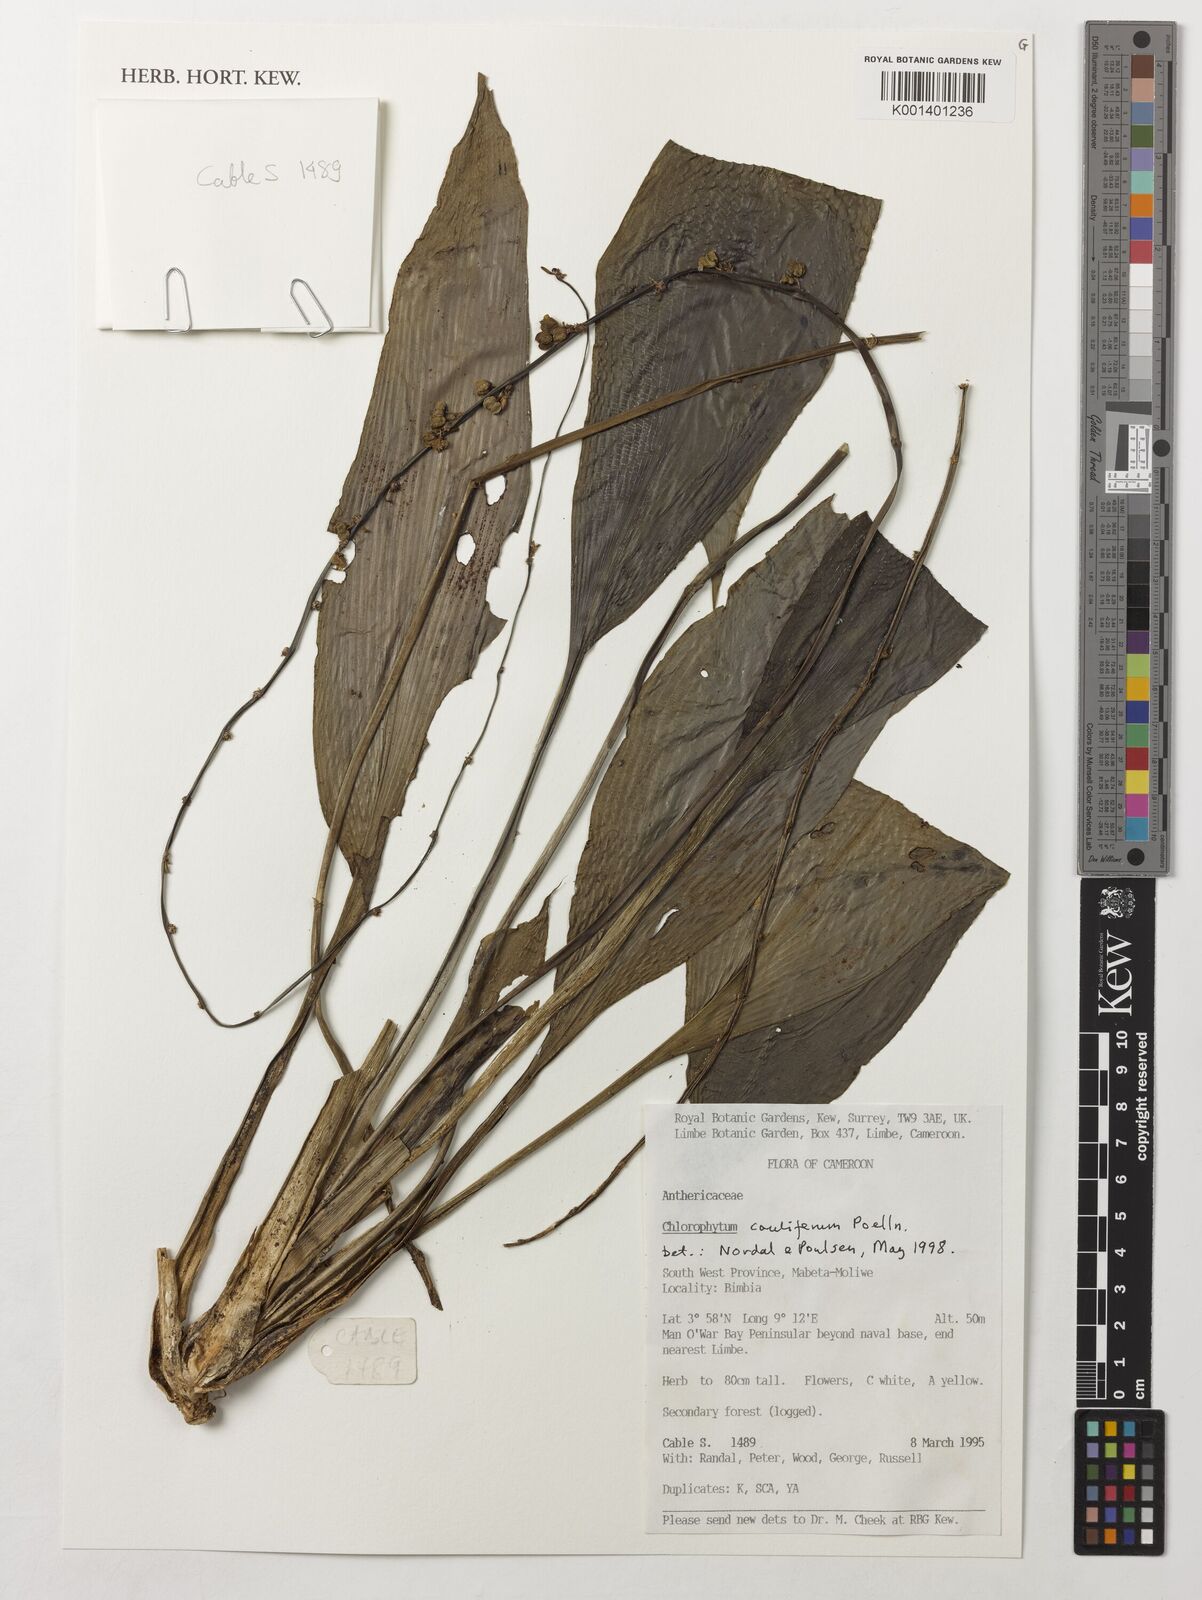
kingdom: Plantae
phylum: Tracheophyta
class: Liliopsida
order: Asparagales
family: Asparagaceae
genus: Chlorophytum
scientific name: Chlorophytum sparsiflorum
